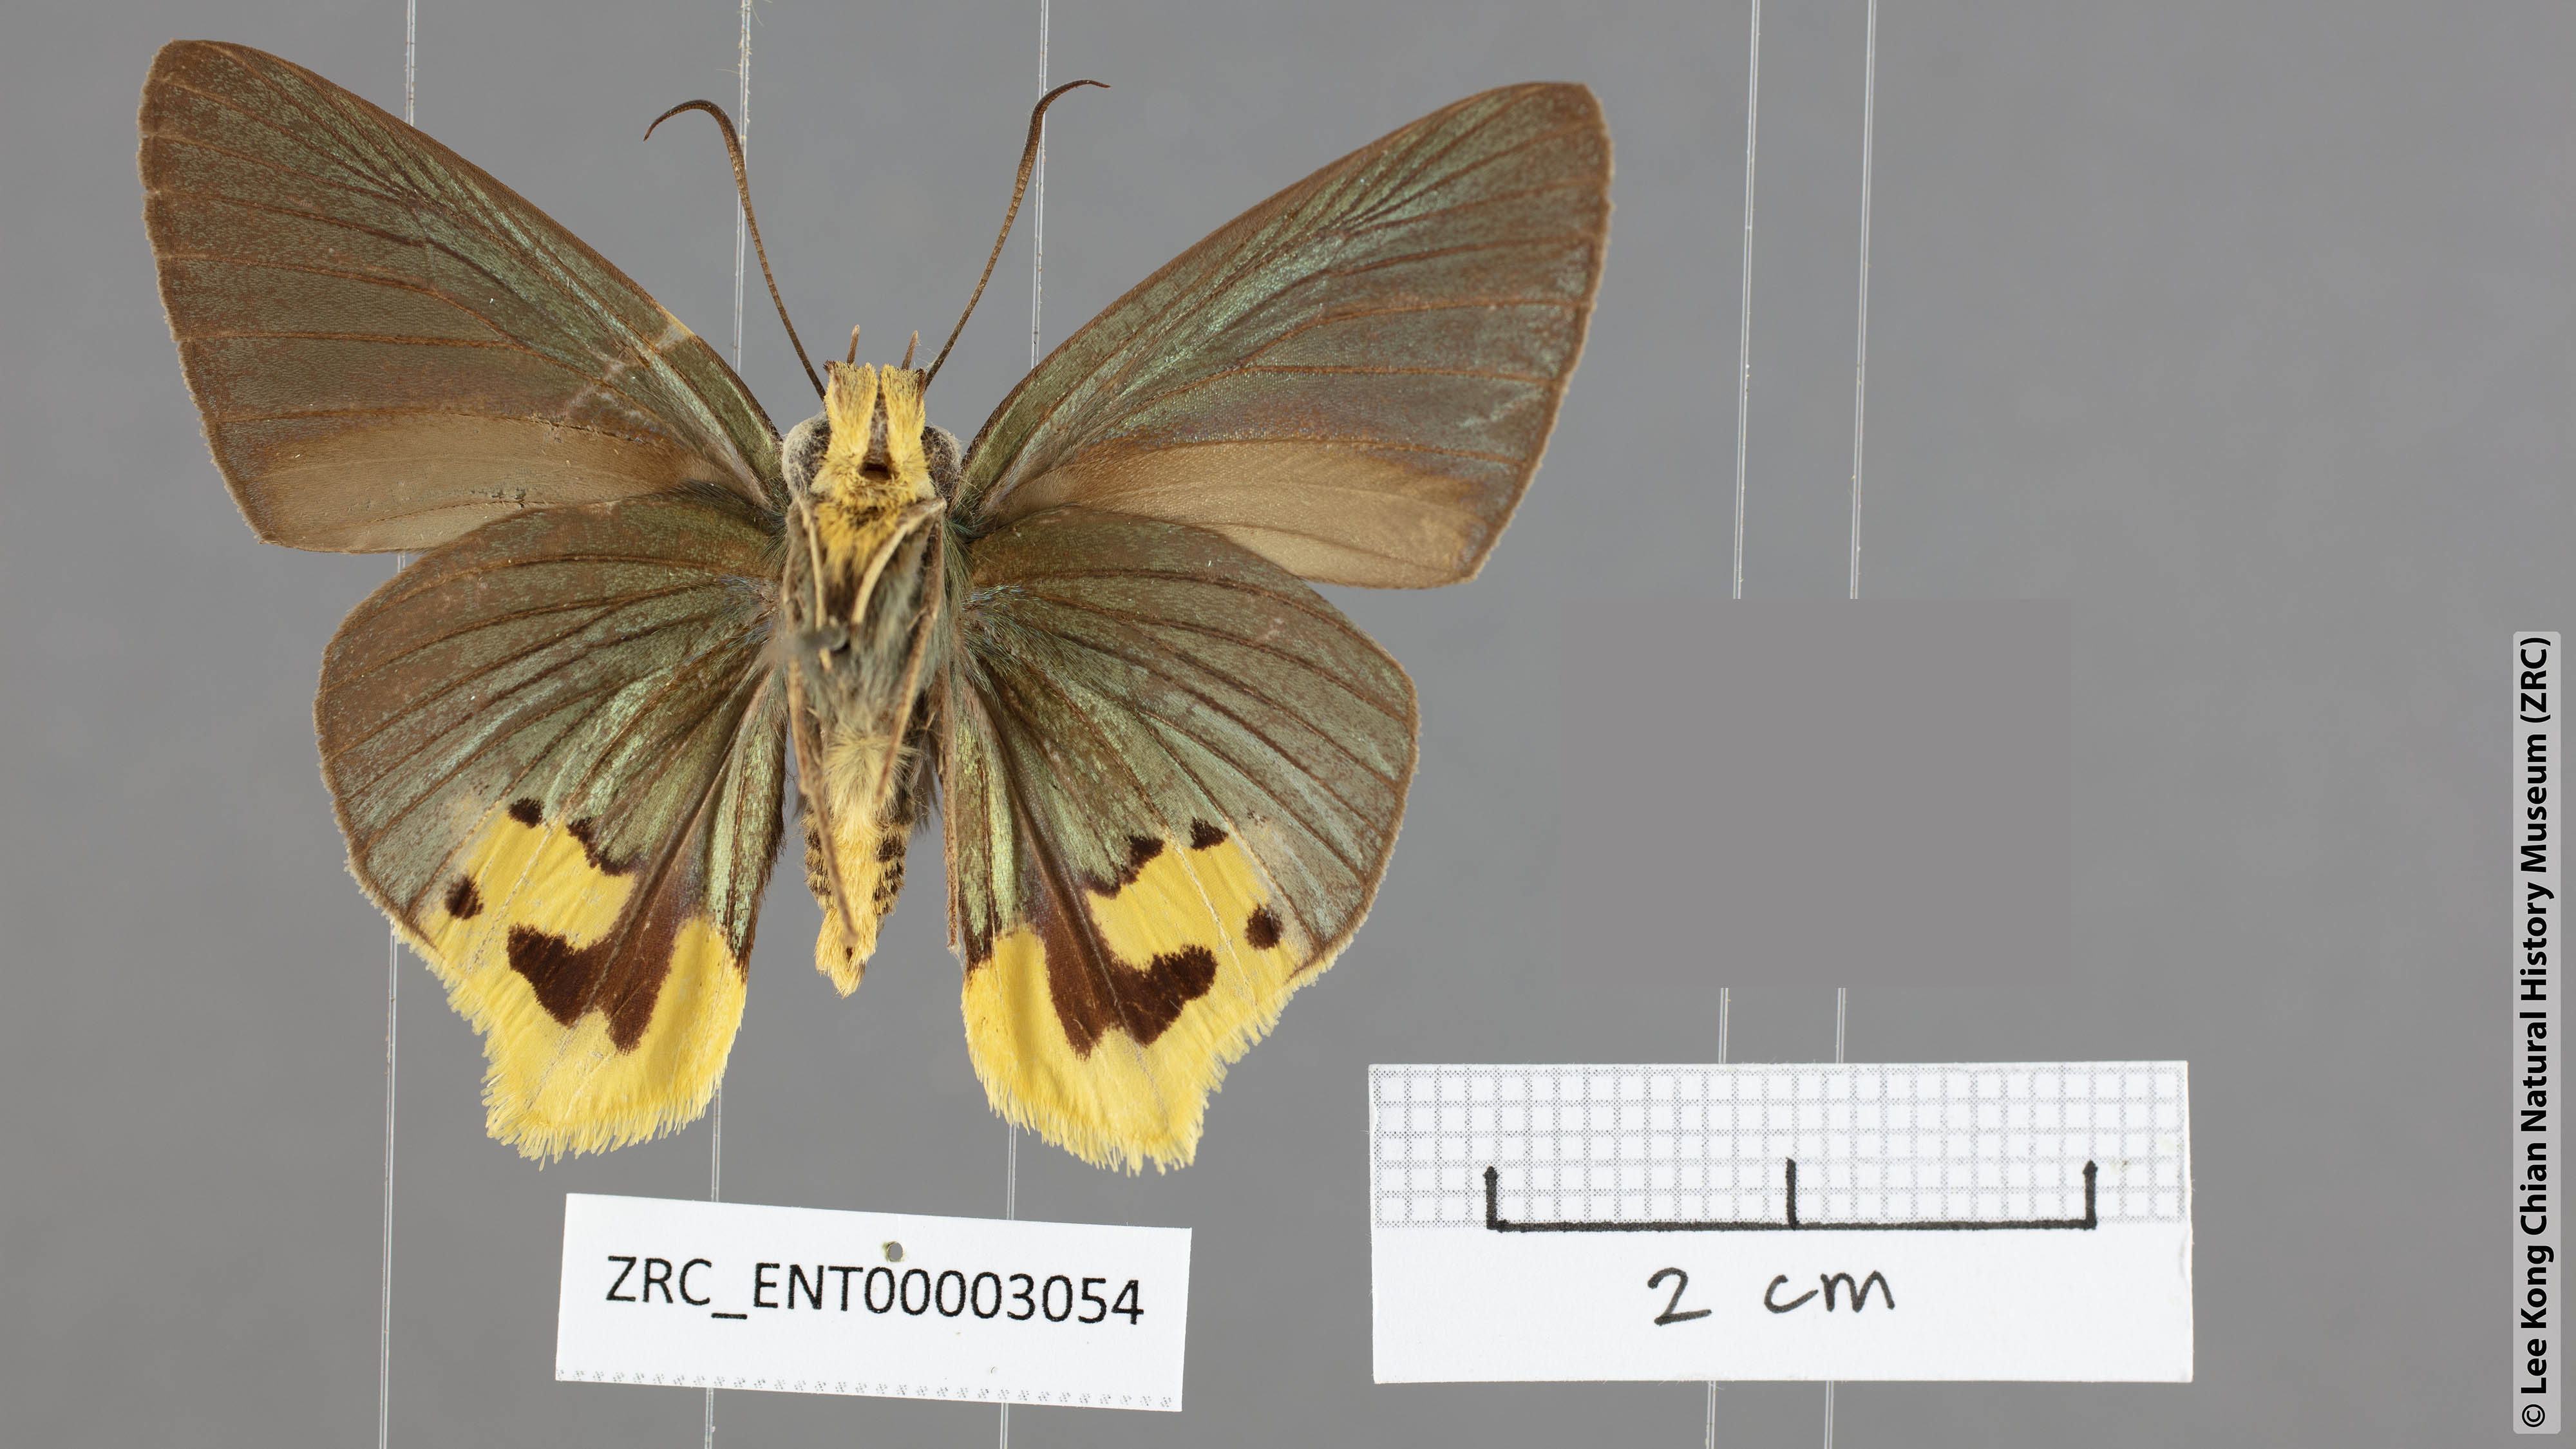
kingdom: Animalia
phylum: Arthropoda
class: Insecta
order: Lepidoptera
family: Hesperiidae
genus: Choaspes
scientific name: Choaspes plateni
